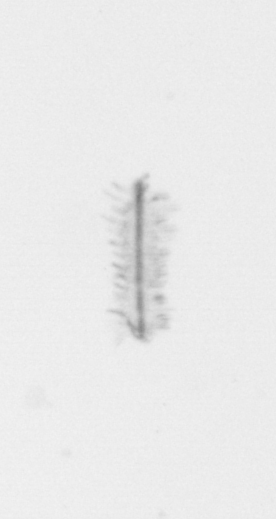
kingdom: Chromista
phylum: Ochrophyta
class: Bacillariophyceae
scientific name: Bacillariophyceae
